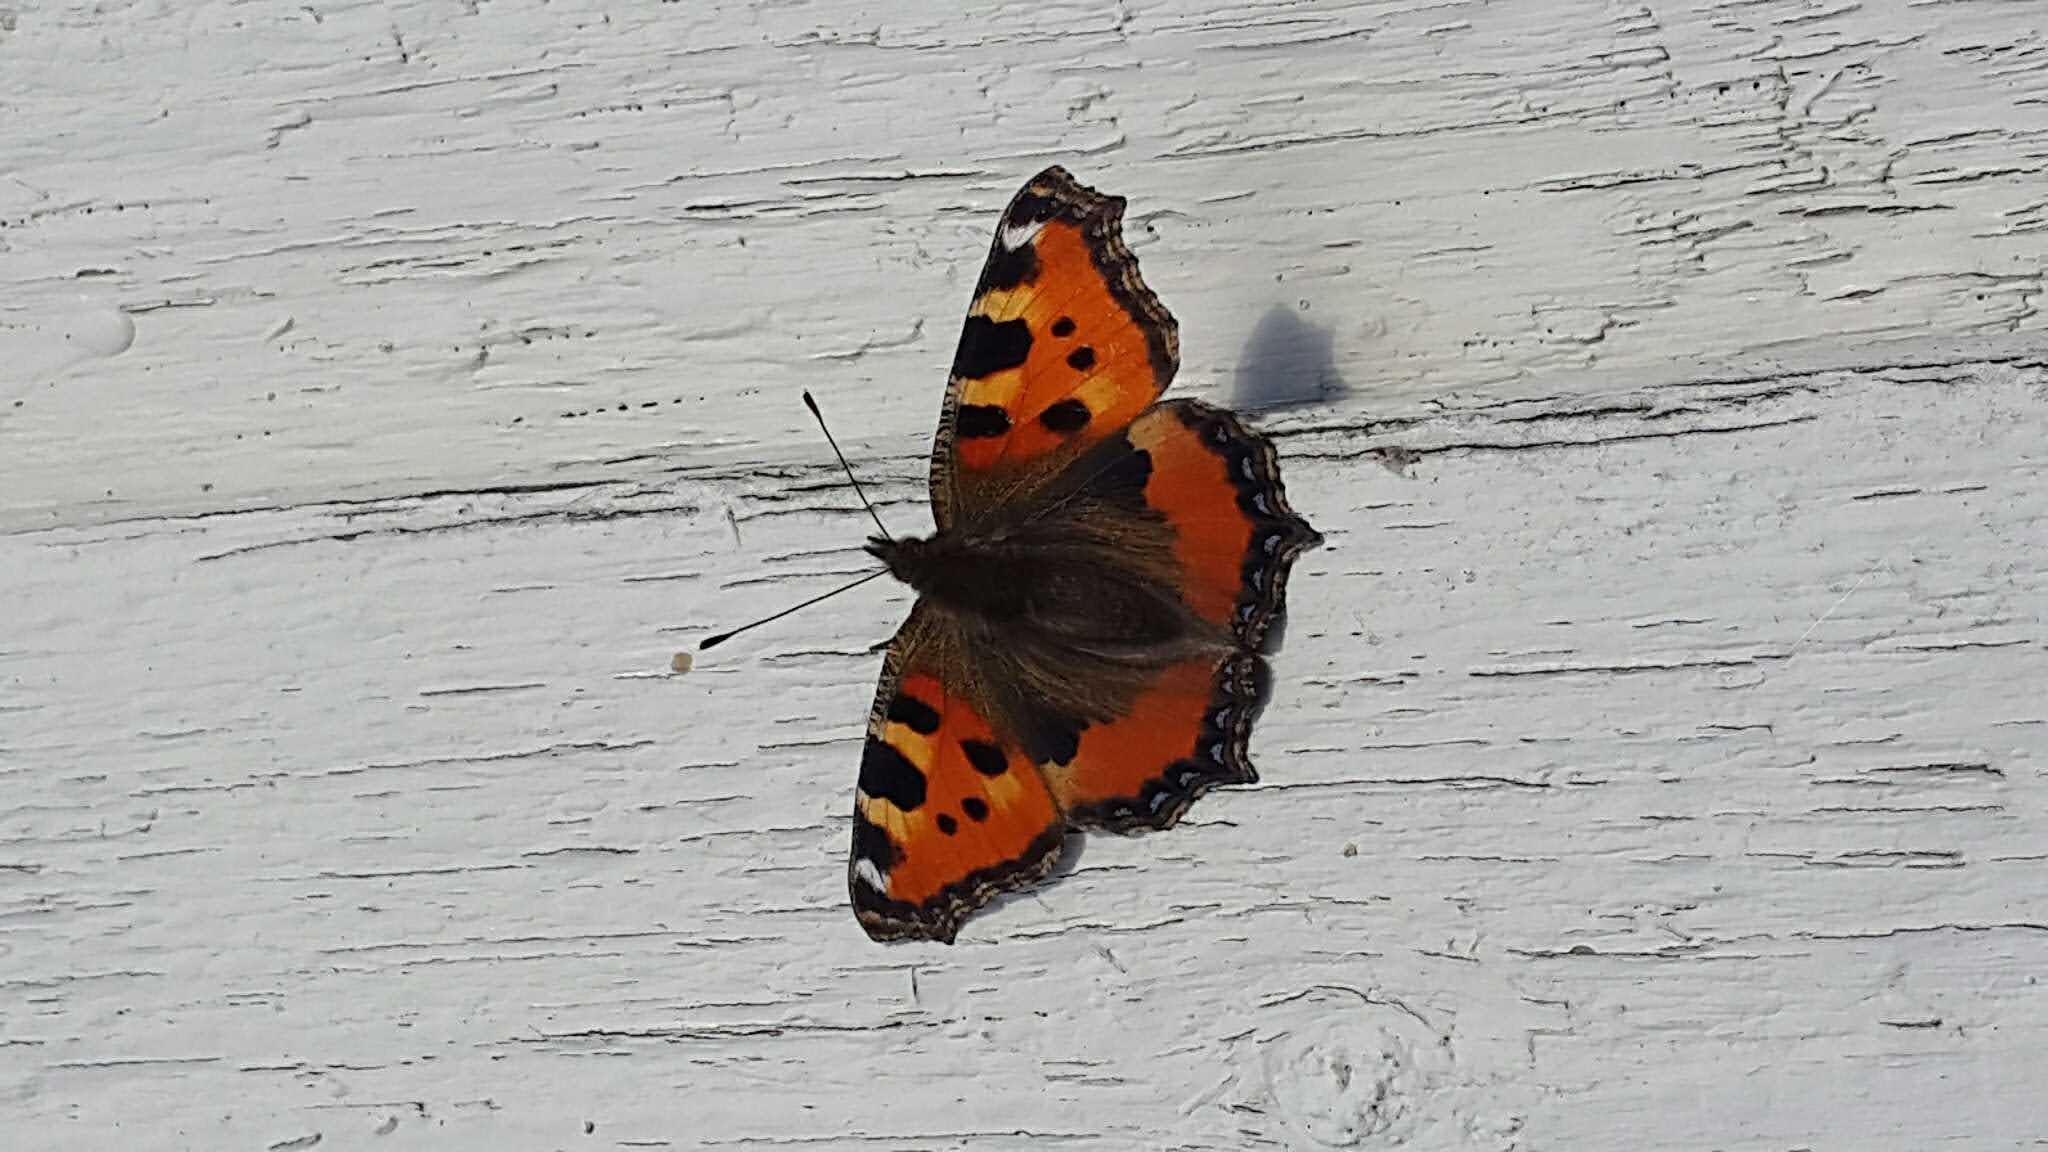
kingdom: Animalia
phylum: Arthropoda
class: Insecta
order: Lepidoptera
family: Nymphalidae
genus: Aglais
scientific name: Aglais urticae
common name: Nældens takvinge
